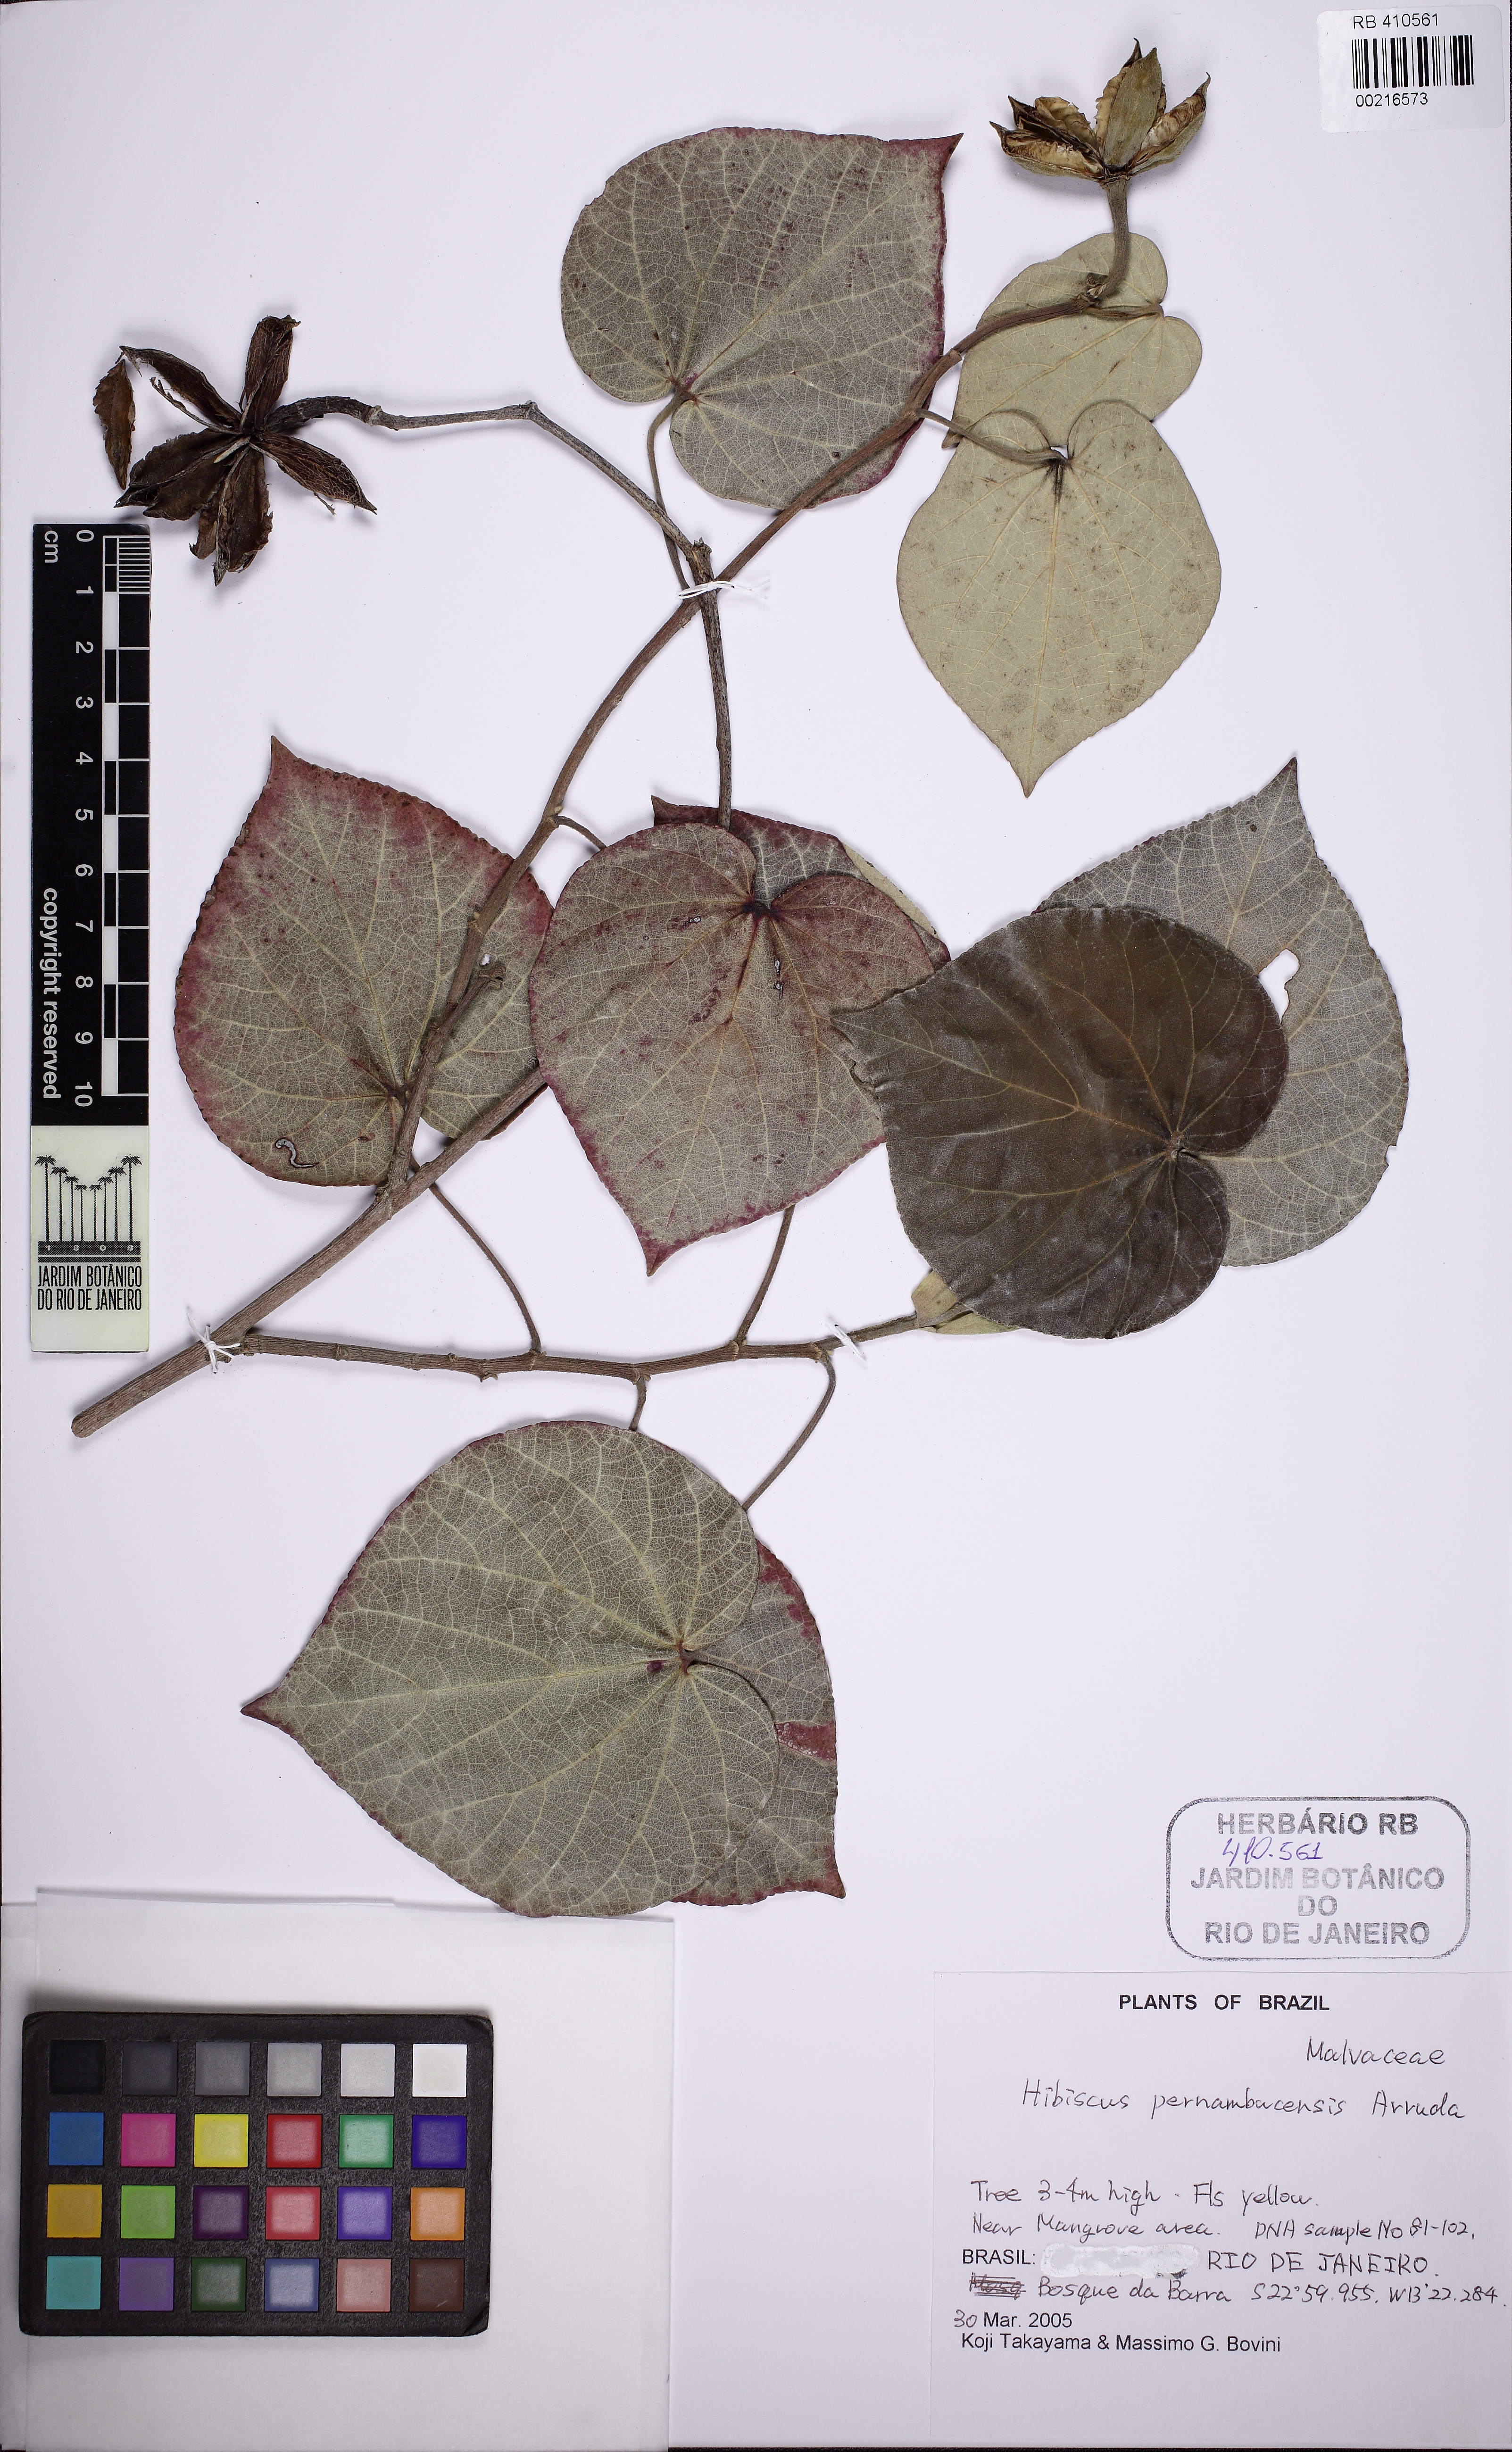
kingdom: Plantae
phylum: Tracheophyta
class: Magnoliopsida
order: Malvales
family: Malvaceae
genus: Talipariti
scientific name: Talipariti pernambucense
